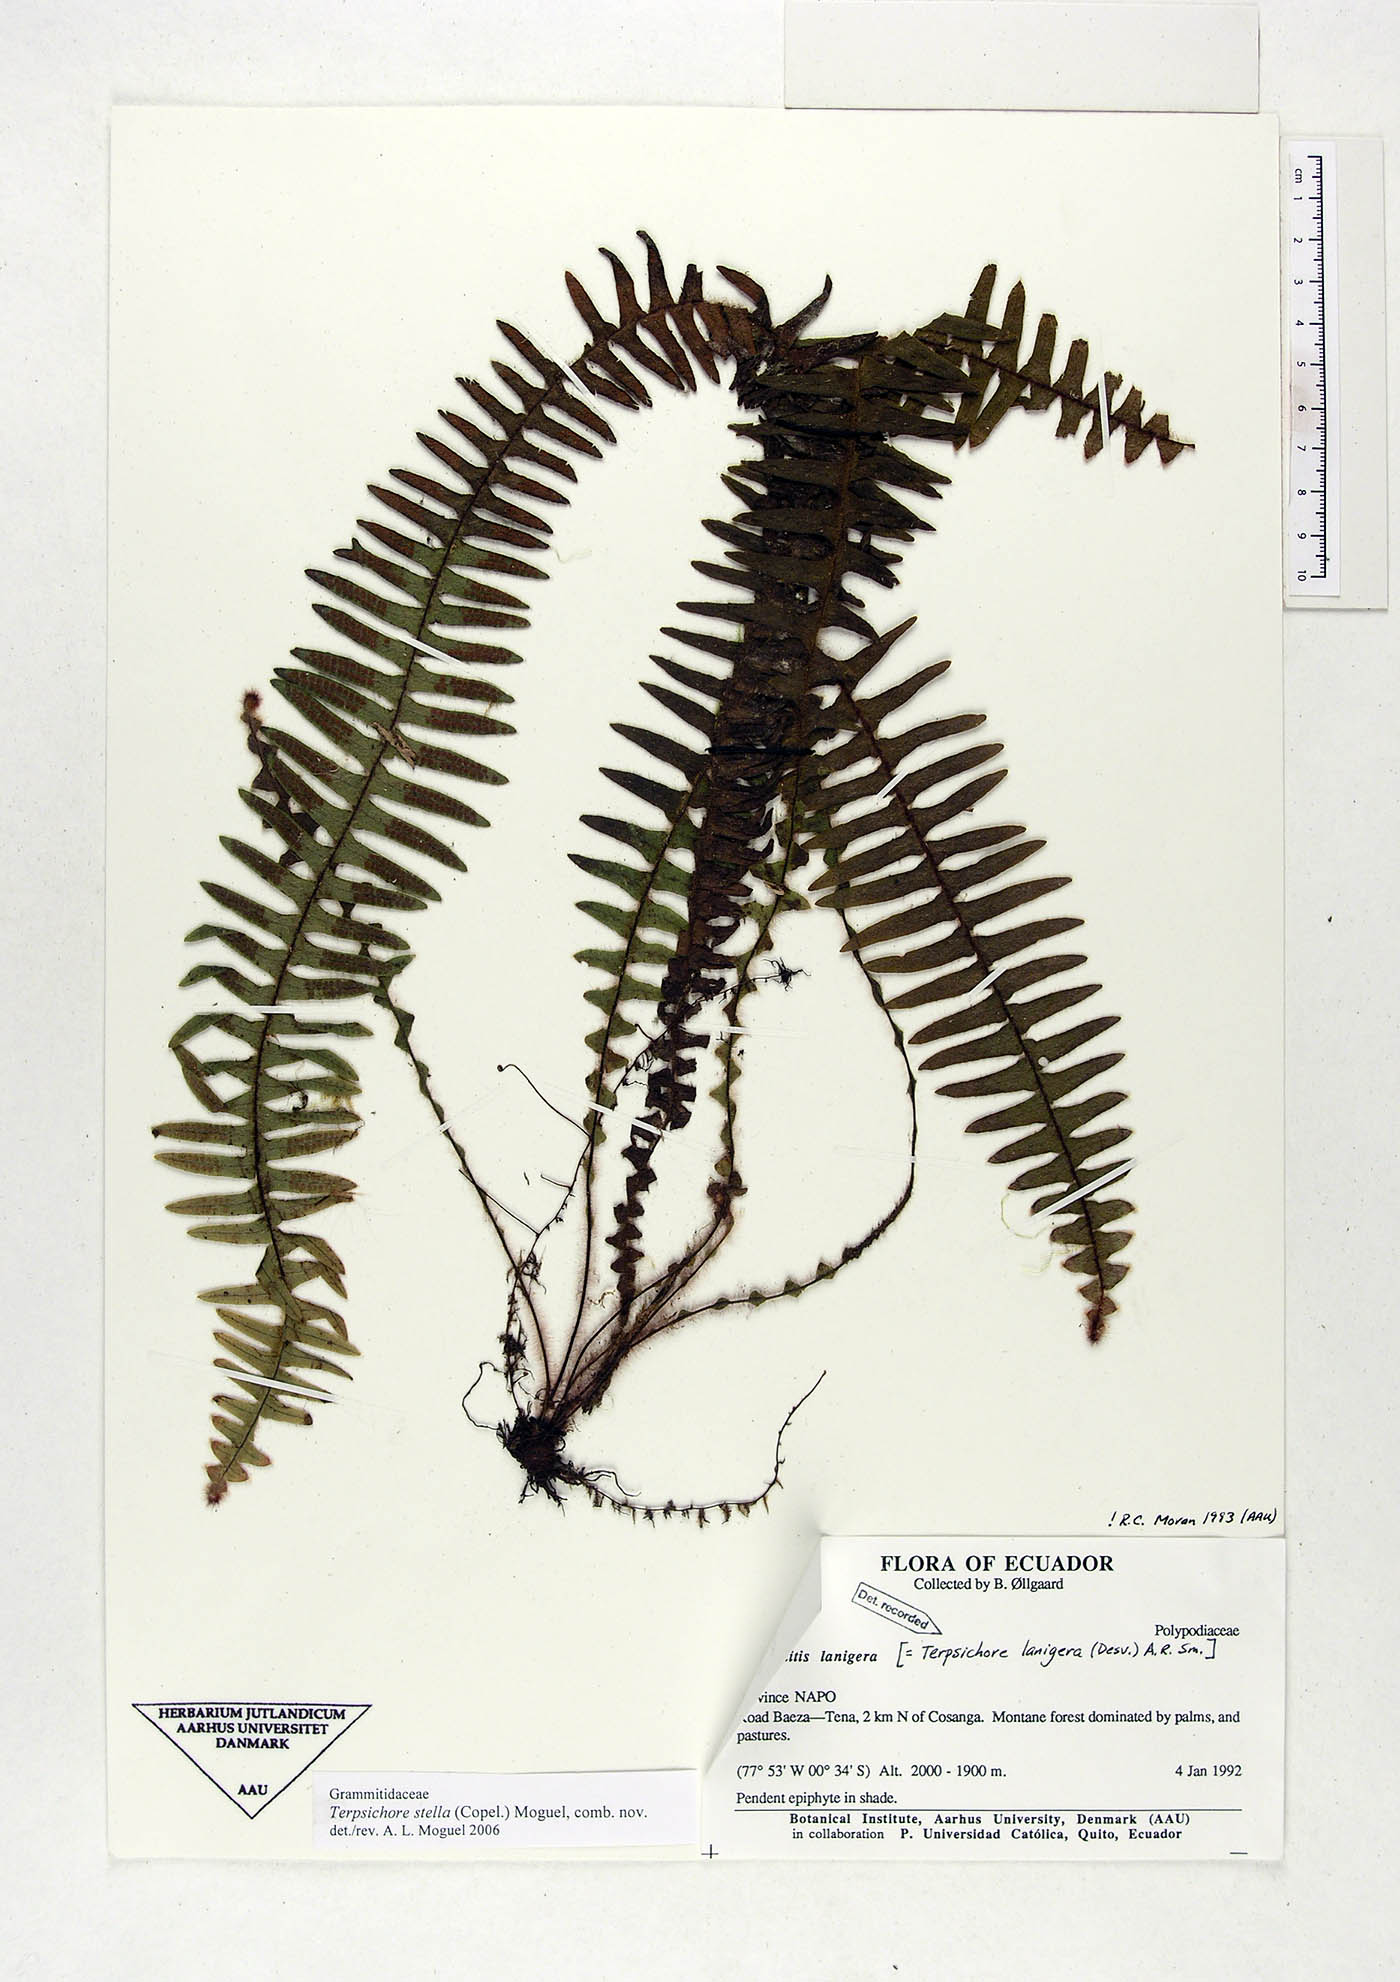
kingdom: Plantae
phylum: Tracheophyta
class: Polypodiopsida
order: Polypodiales
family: Polypodiaceae
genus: Alansmia
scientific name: Alansmia stella
